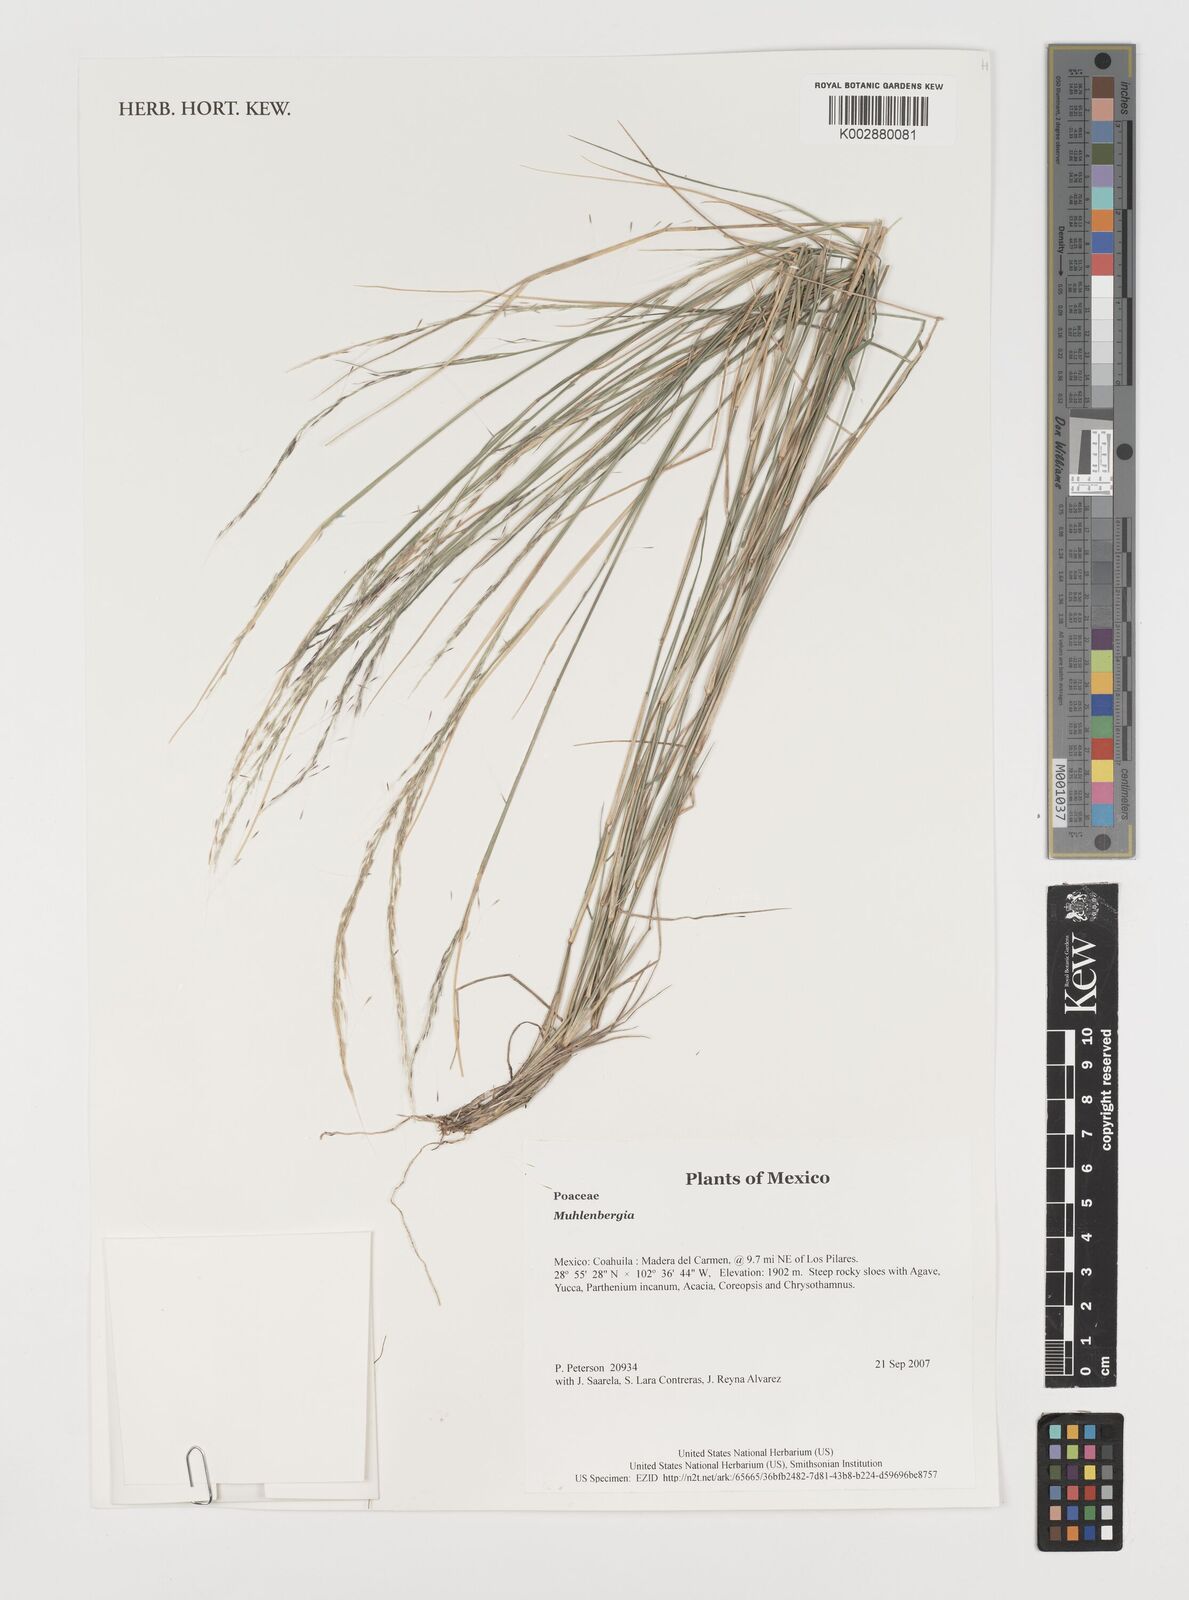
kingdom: Plantae
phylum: Tracheophyta
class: Liliopsida
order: Poales
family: Poaceae
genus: Muhlenbergia
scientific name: Muhlenbergia
